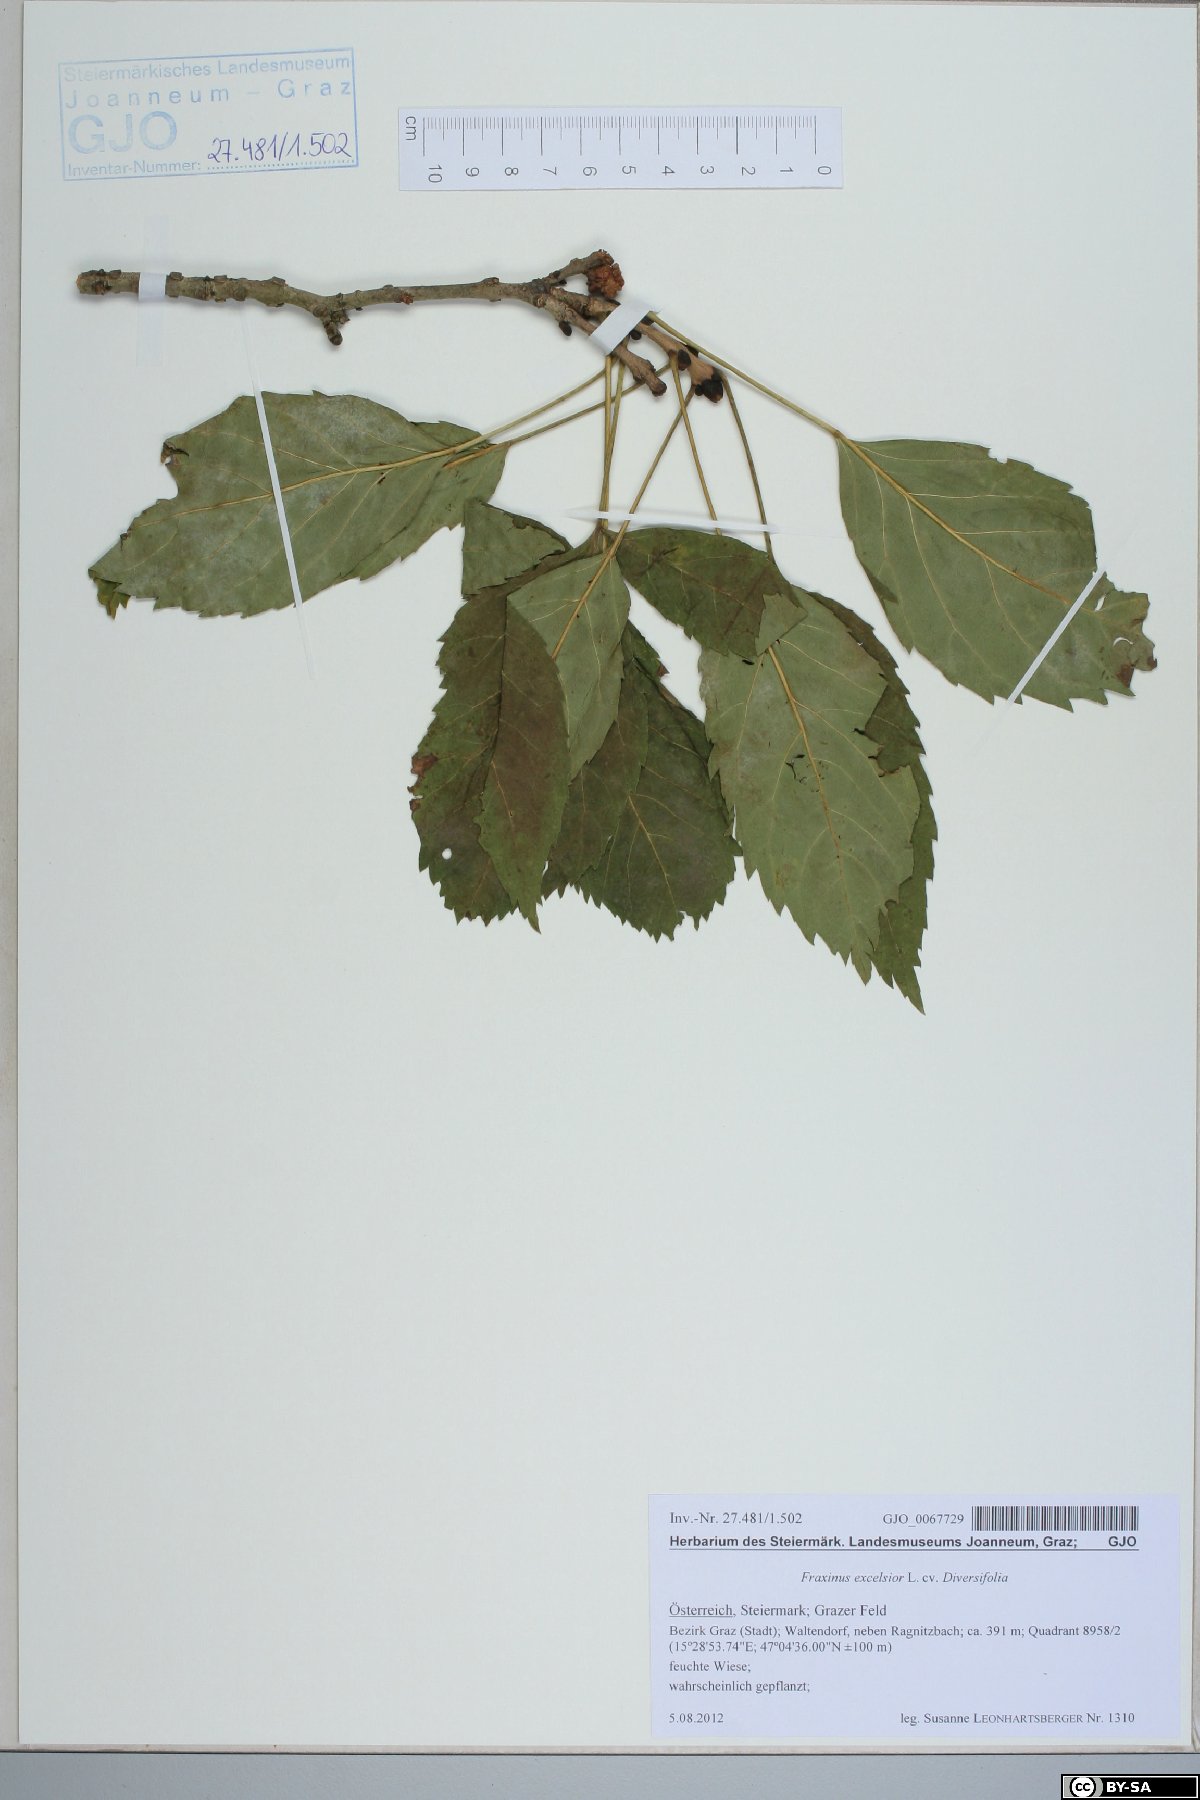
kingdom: Plantae
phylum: Tracheophyta
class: Magnoliopsida
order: Lamiales
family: Oleaceae
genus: Fraxinus
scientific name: Fraxinus excelsior
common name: European ash
